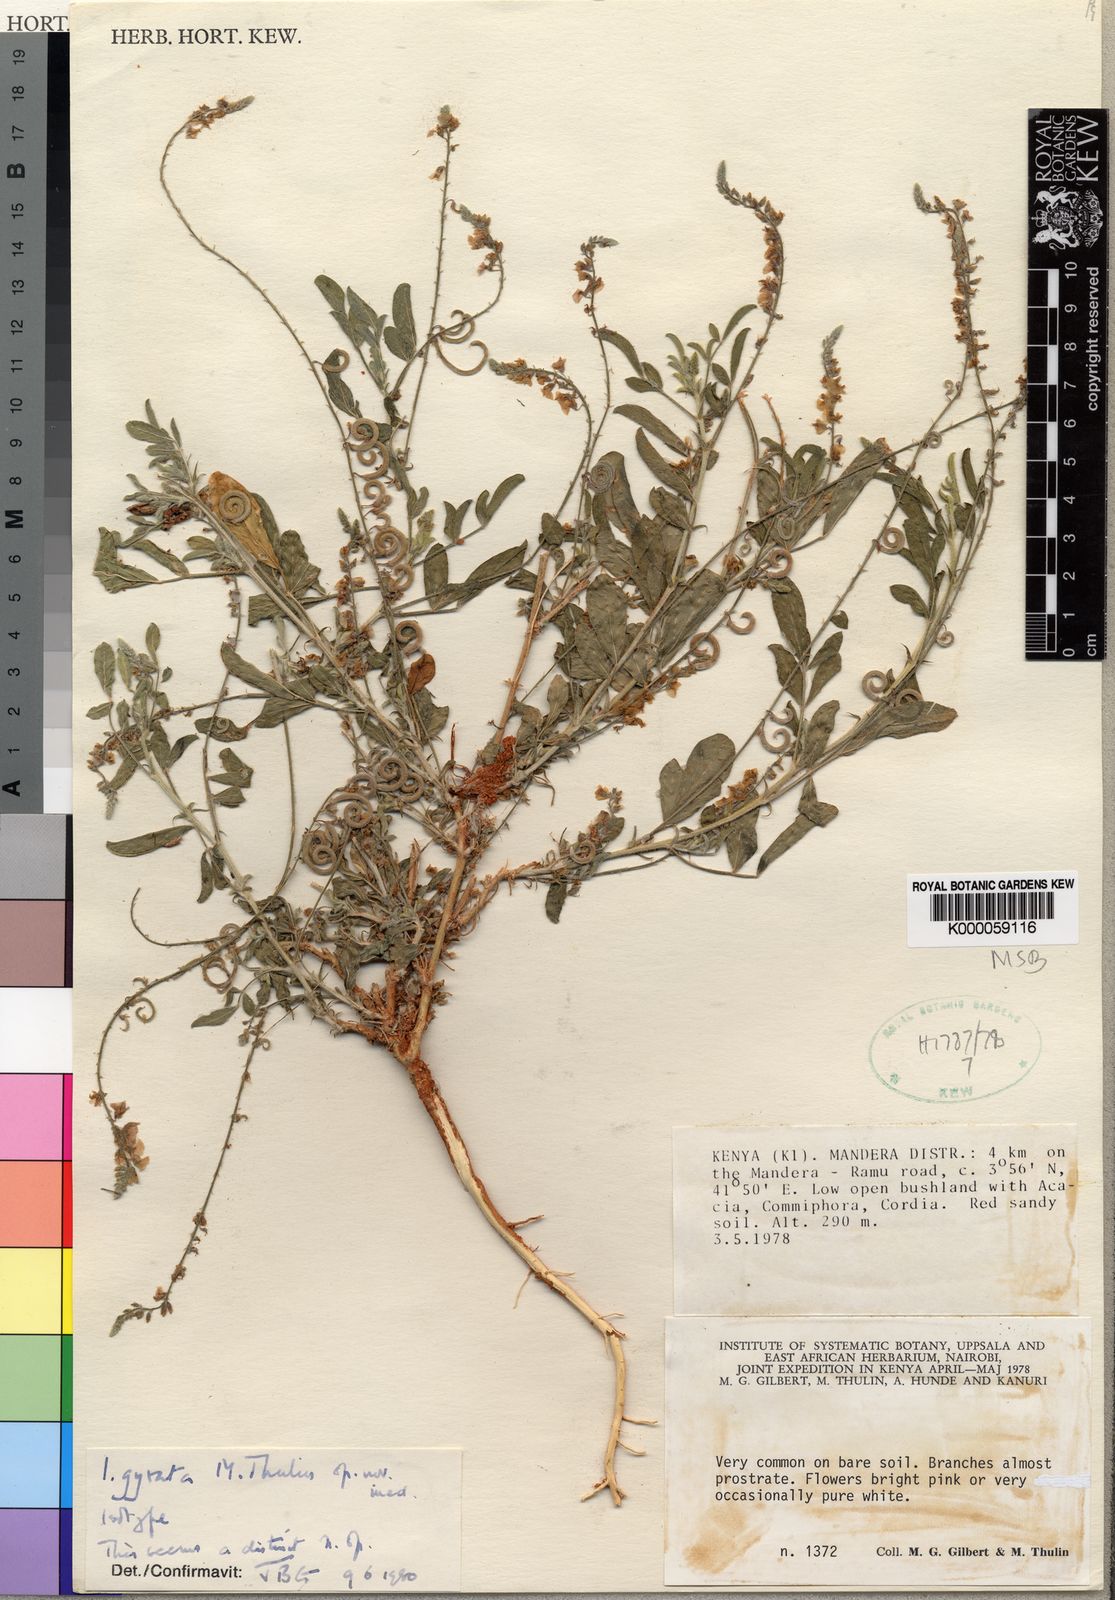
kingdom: Plantae
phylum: Tracheophyta
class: Magnoliopsida
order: Fabales
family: Fabaceae
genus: Microcharis
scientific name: Microcharis gyrata
